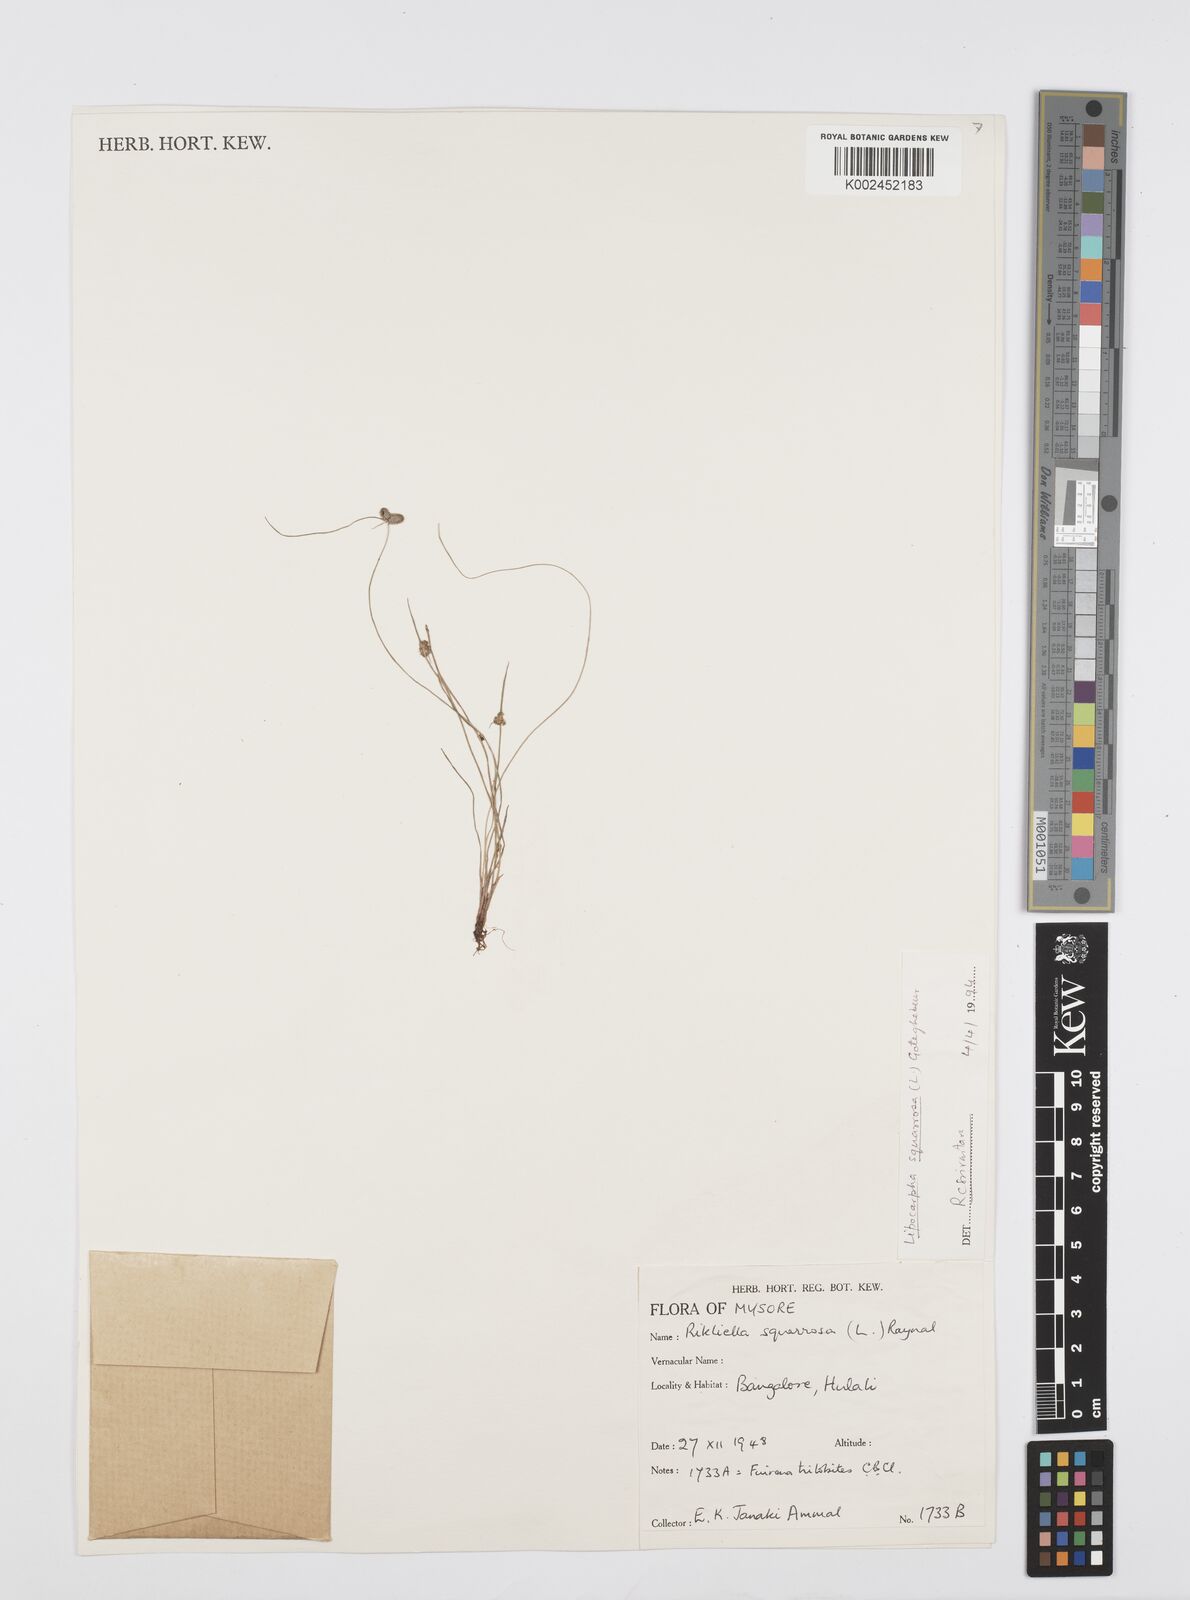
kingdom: Plantae
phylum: Tracheophyta
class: Liliopsida
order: Poales
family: Cyperaceae
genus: Cyperus
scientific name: Cyperus squarrosus
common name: Awned cyperus
